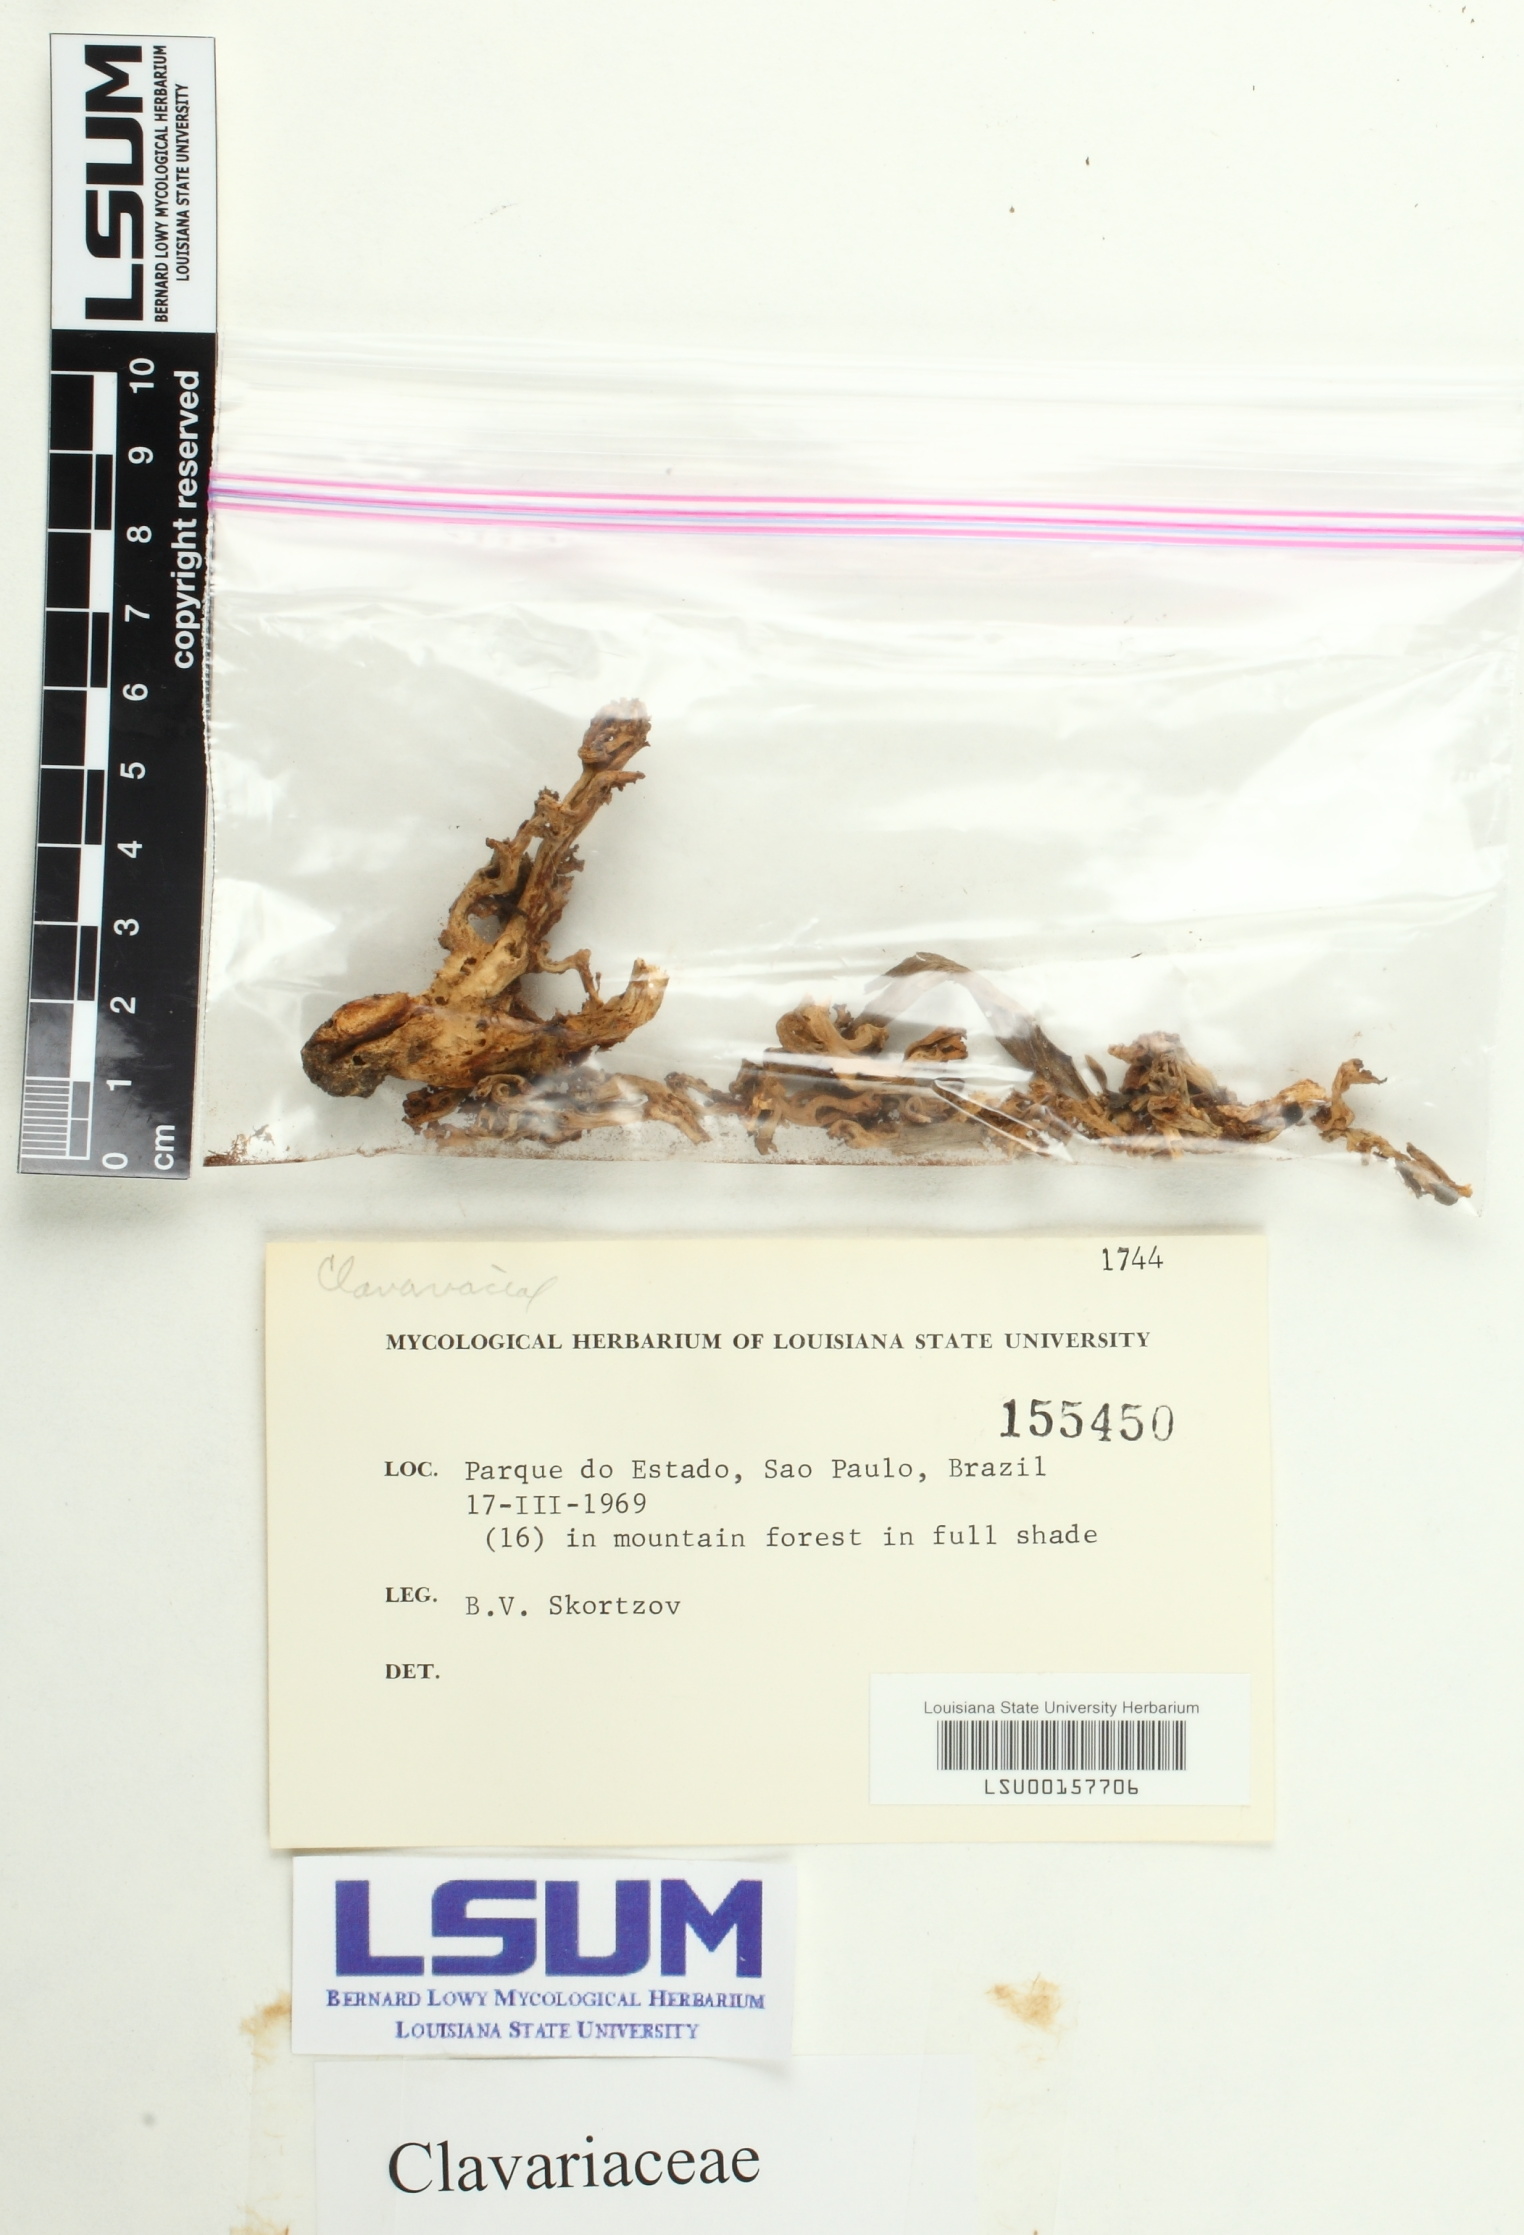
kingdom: Fungi
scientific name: Fungi
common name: Fungi
